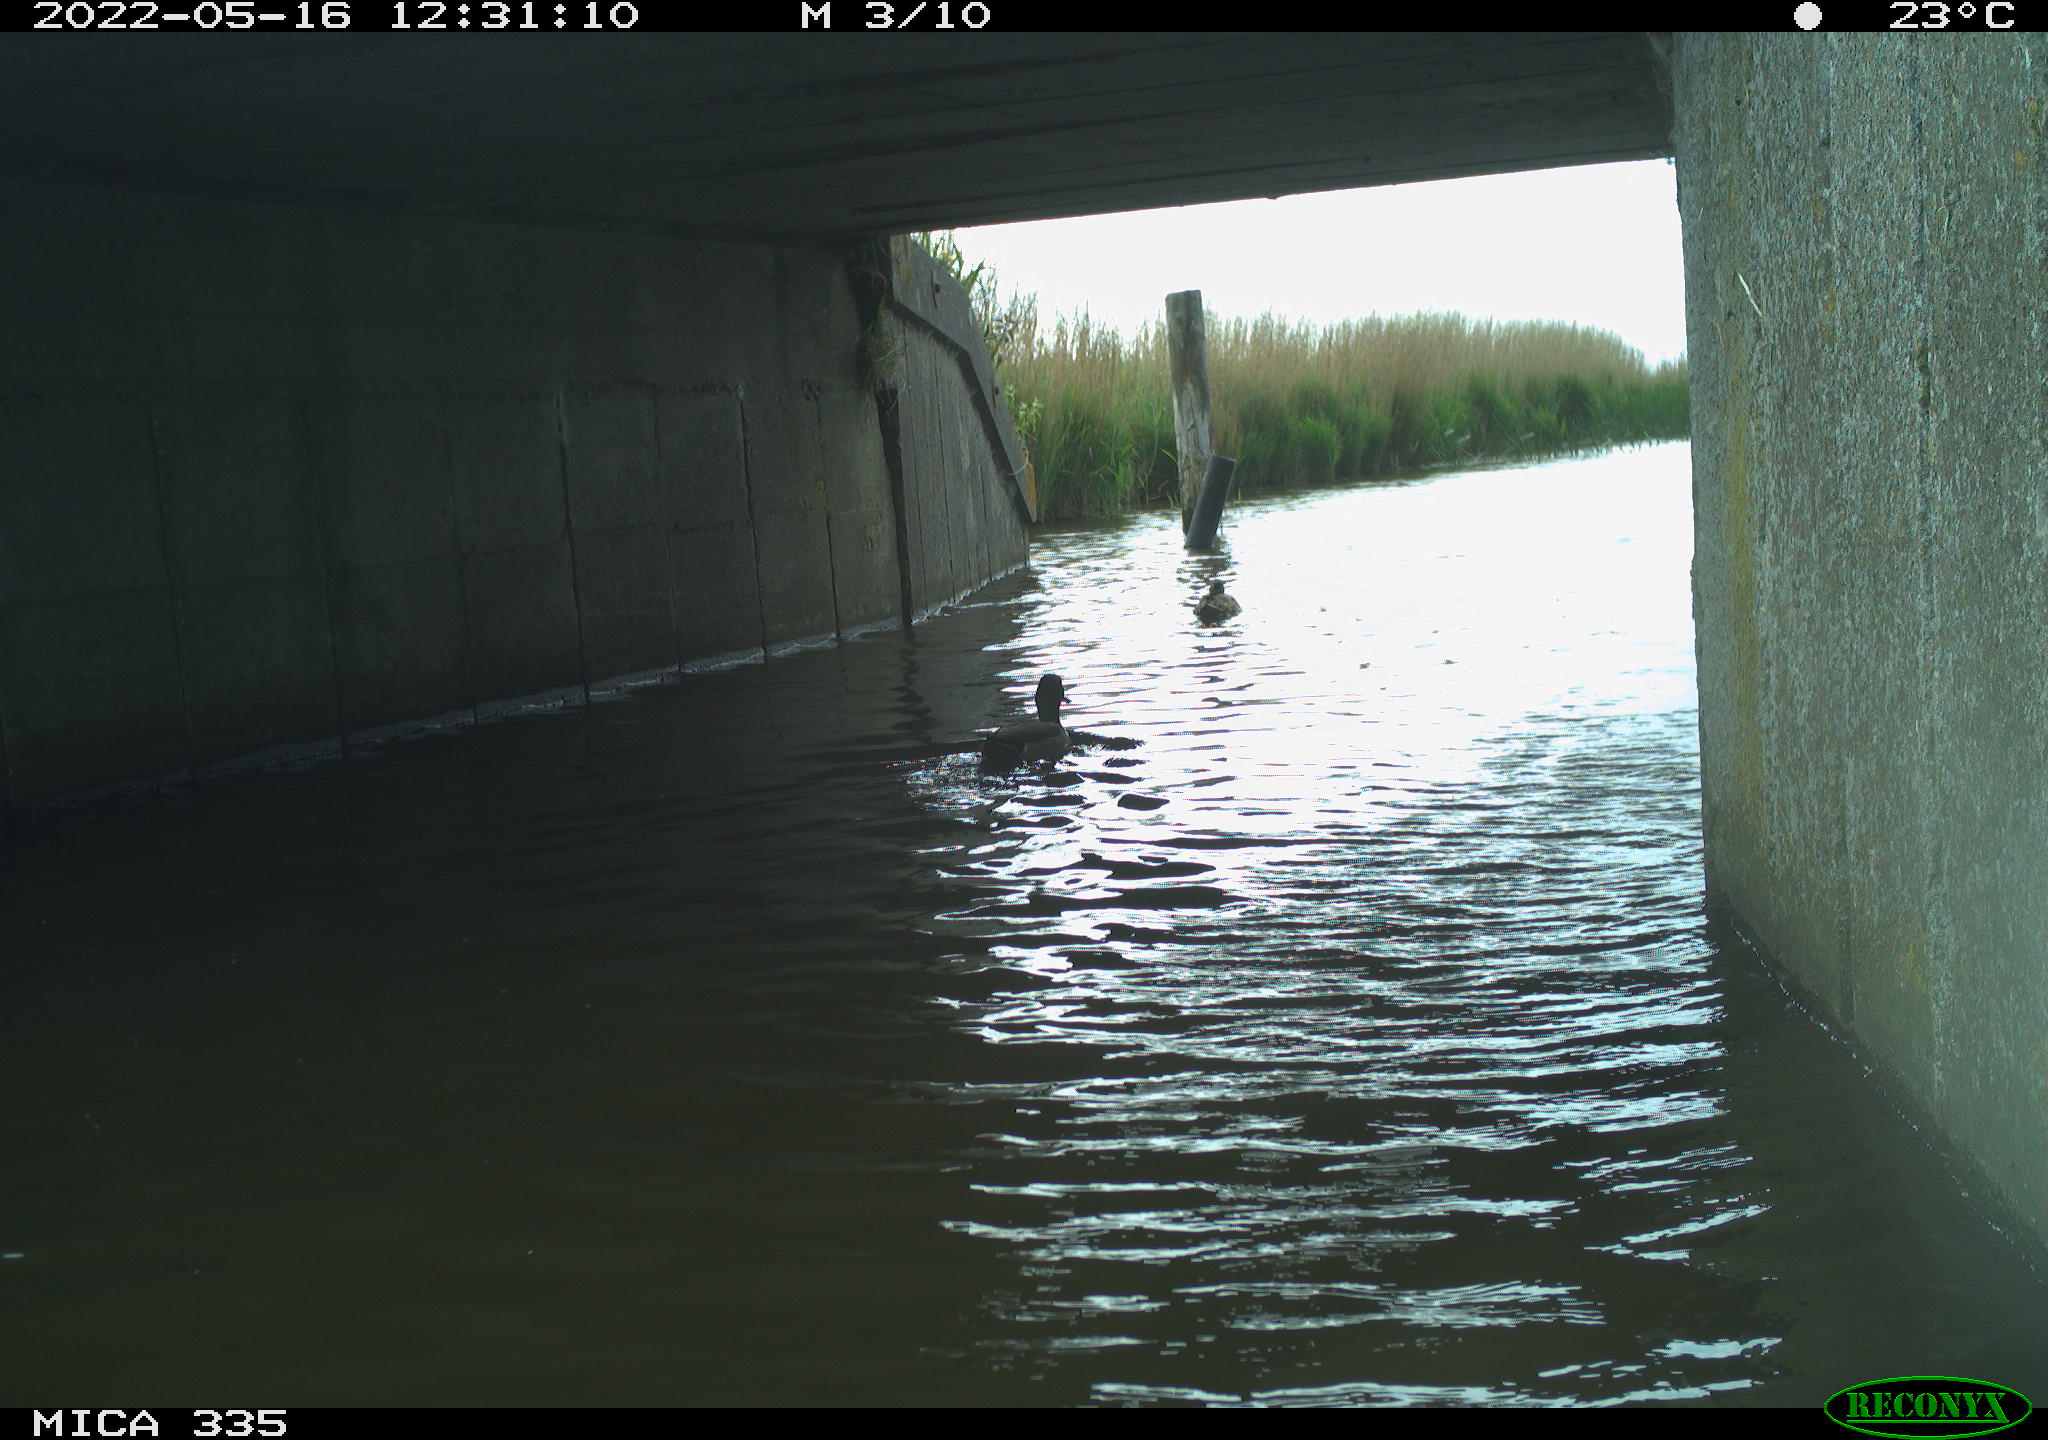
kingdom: Animalia
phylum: Chordata
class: Aves
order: Anseriformes
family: Anatidae
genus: Anas
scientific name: Anas platyrhynchos
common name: Mallard
